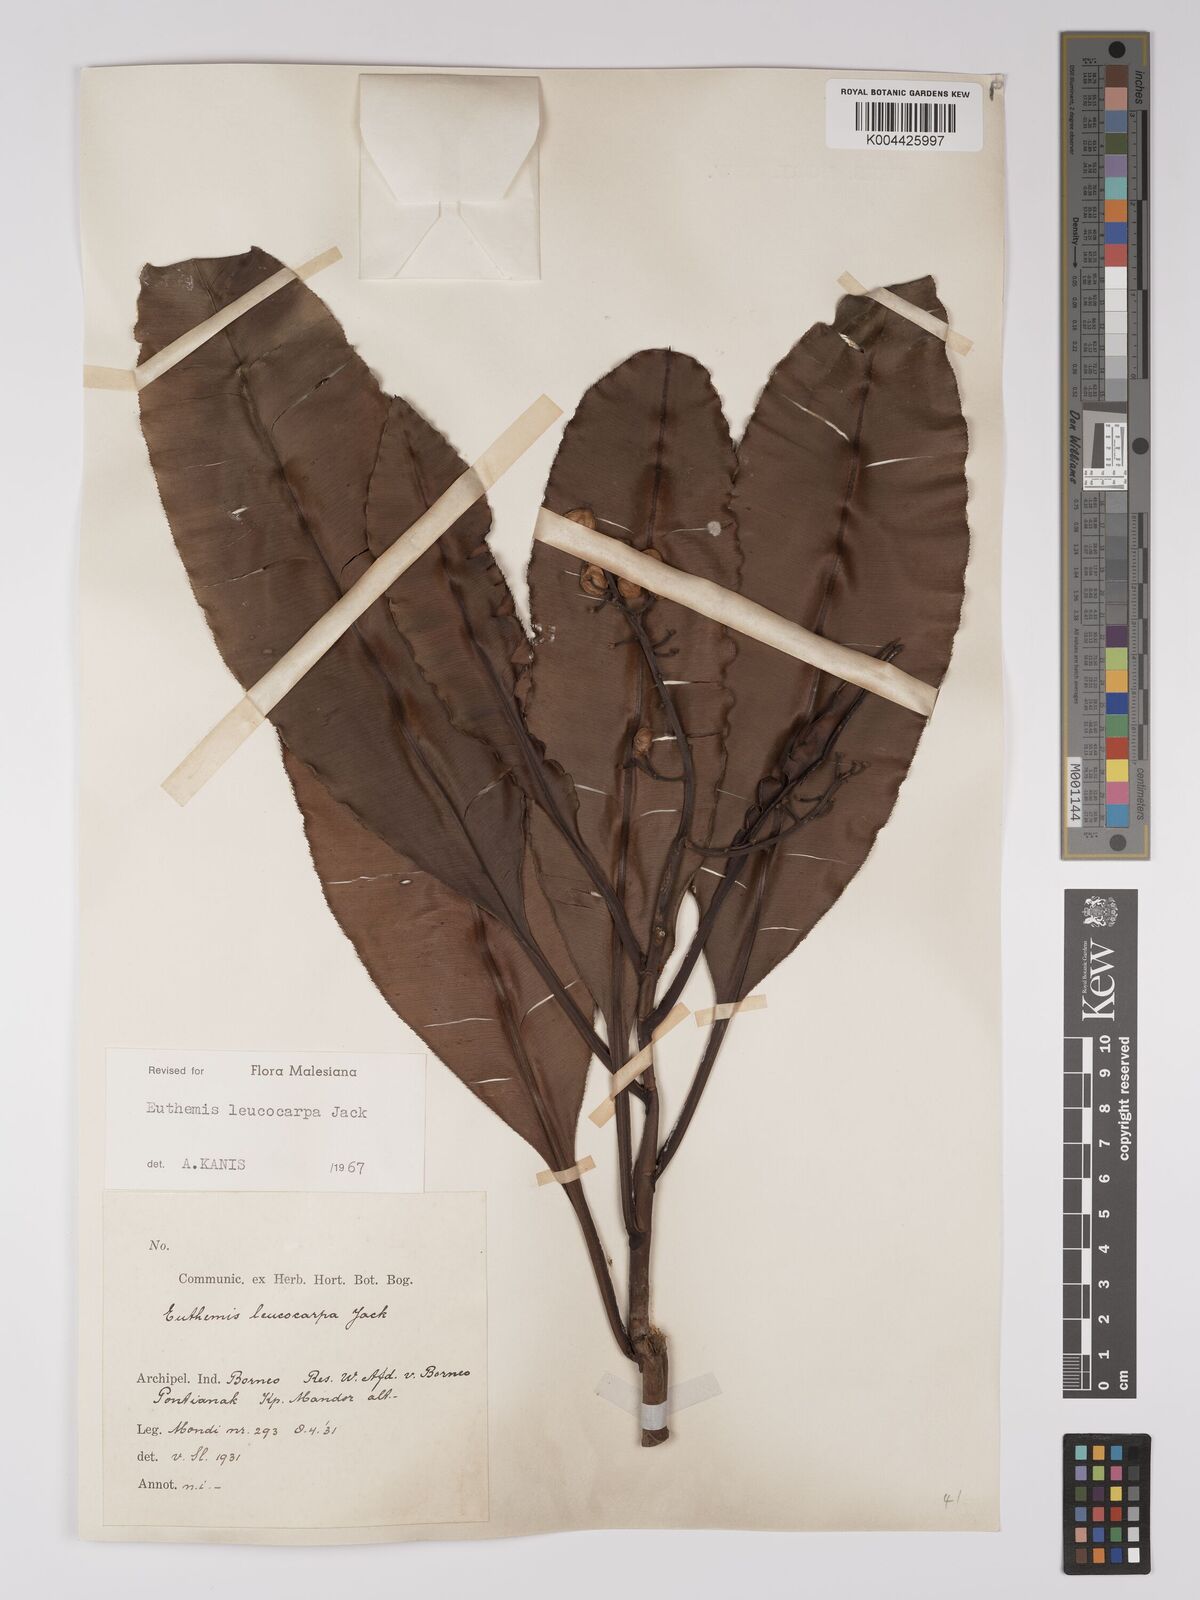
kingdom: Plantae
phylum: Tracheophyta
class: Magnoliopsida
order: Malpighiales
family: Ochnaceae
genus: Euthemis
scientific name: Euthemis leucocarpa
